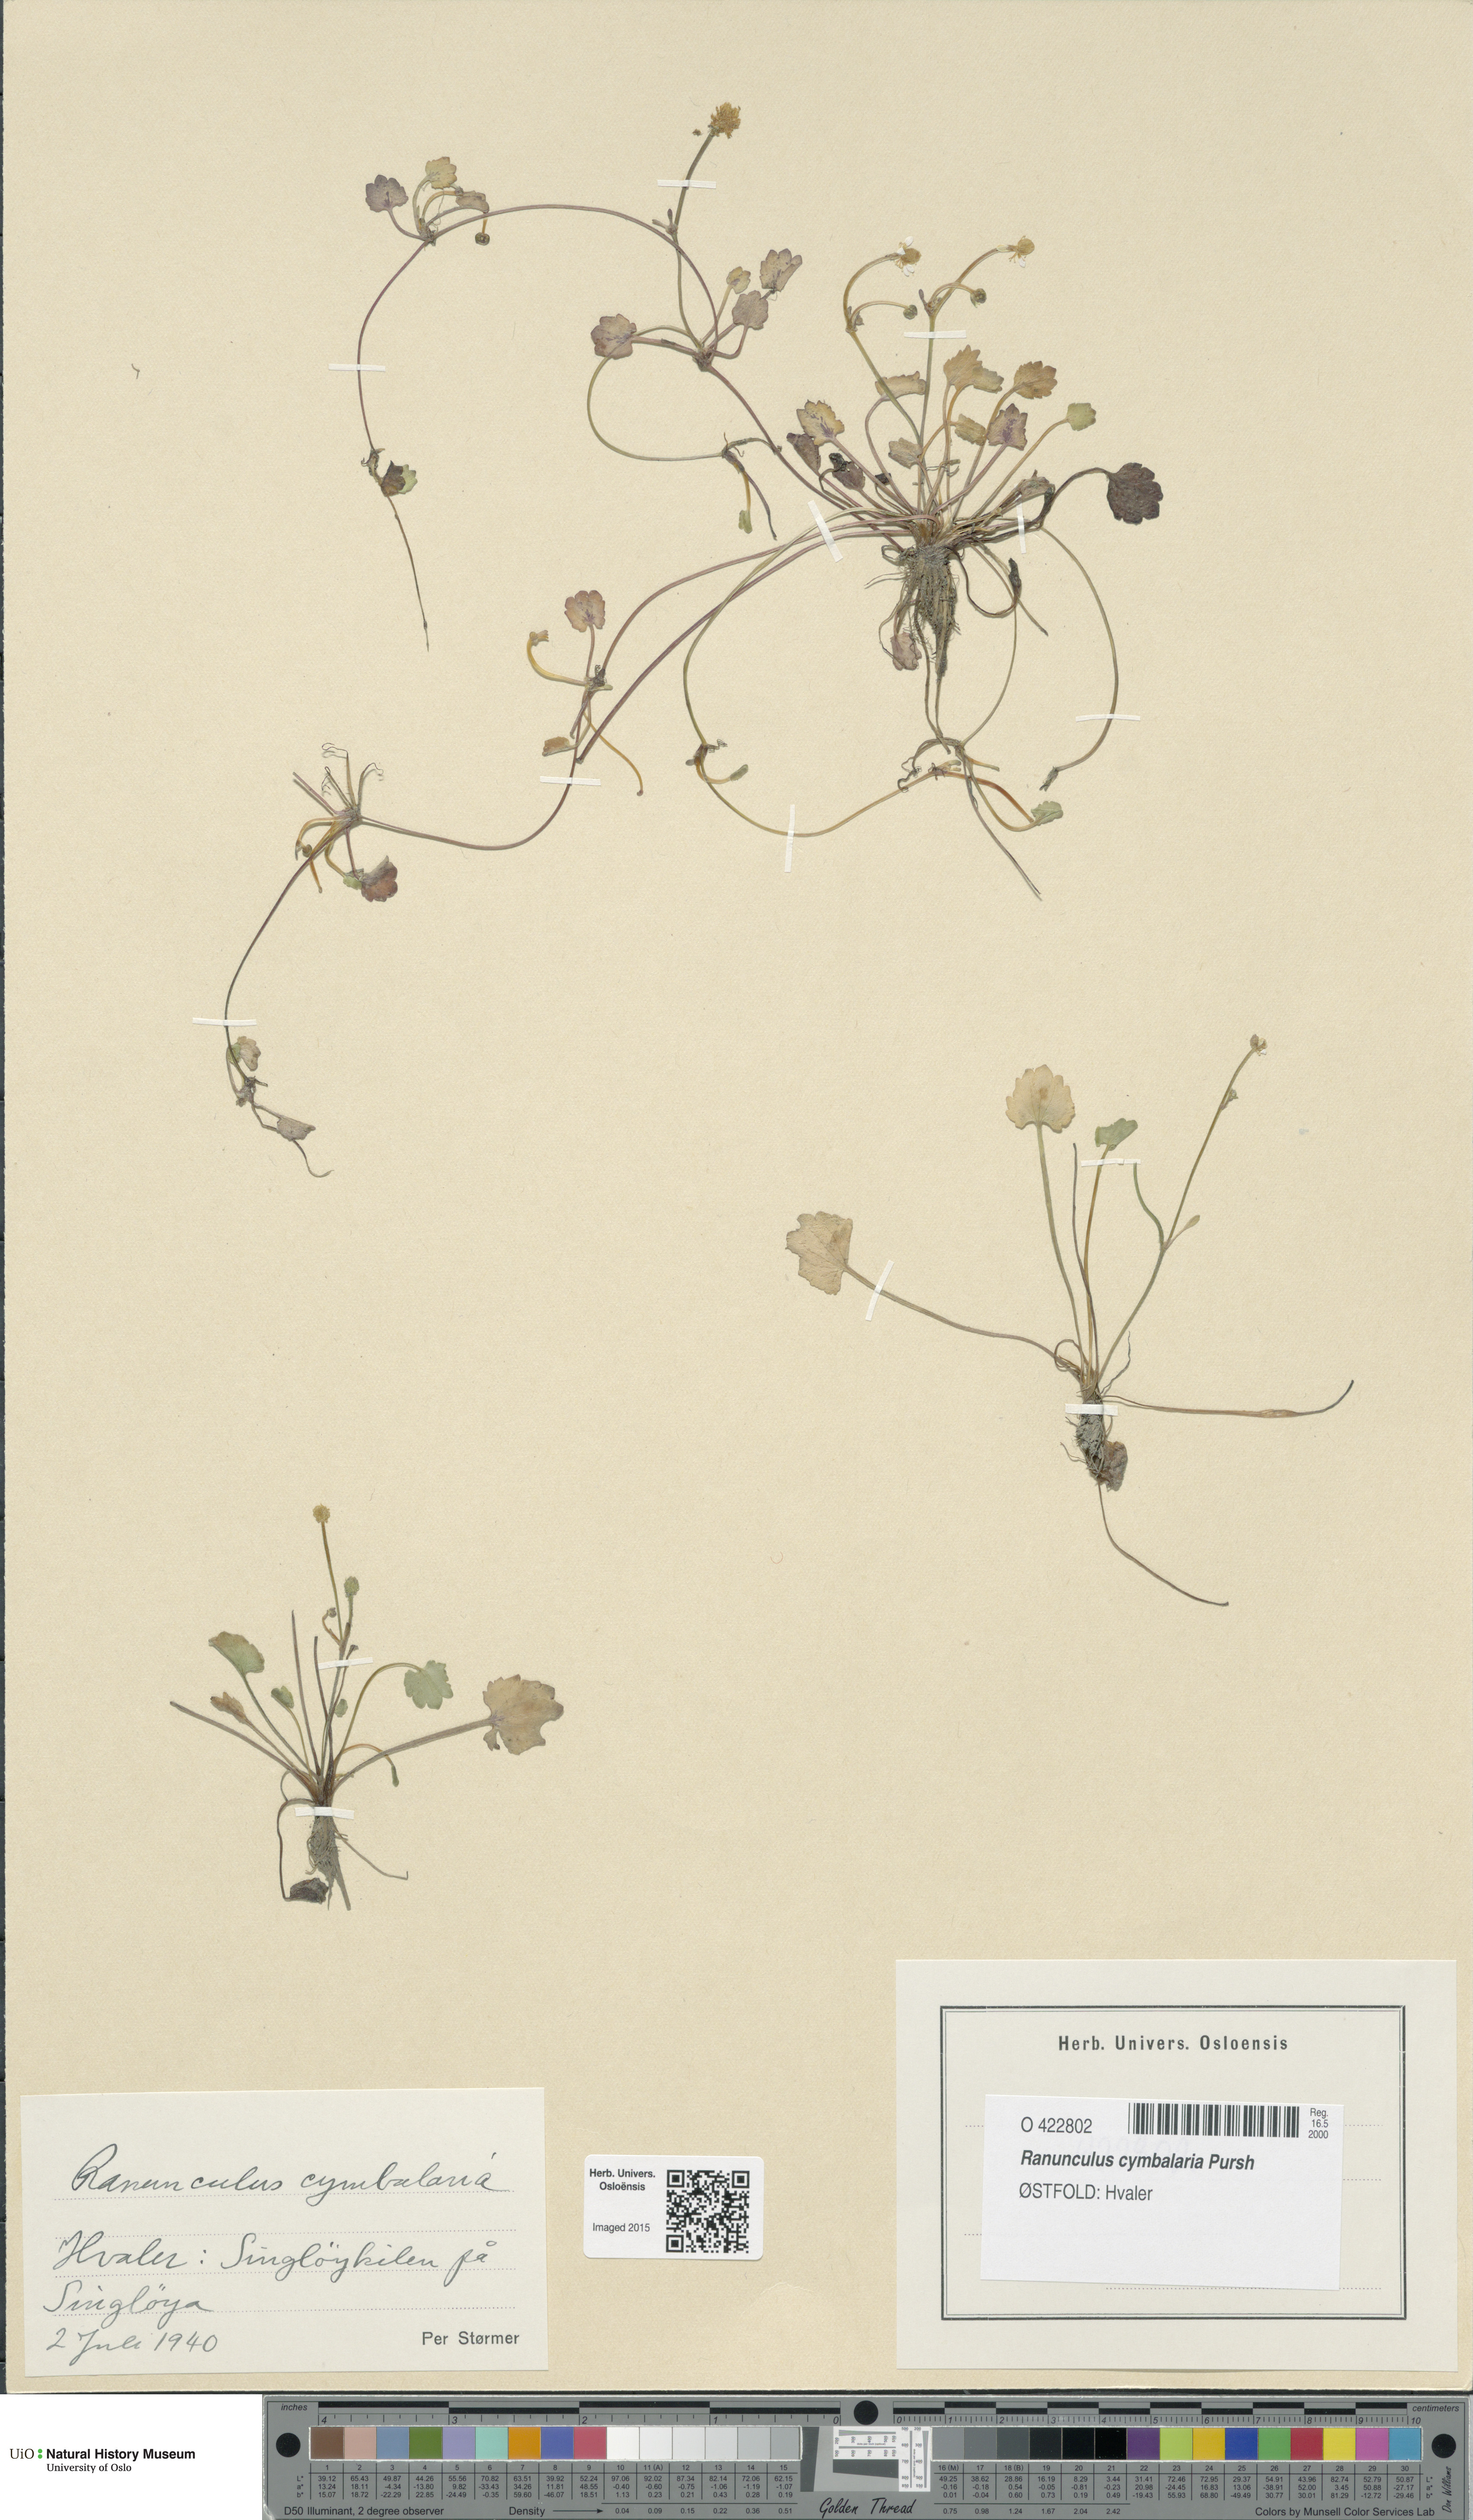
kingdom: Plantae
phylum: Tracheophyta
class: Magnoliopsida
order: Ranunculales
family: Ranunculaceae
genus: Halerpestes
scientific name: Halerpestes cymbalaria
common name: Seaside crowfoot
